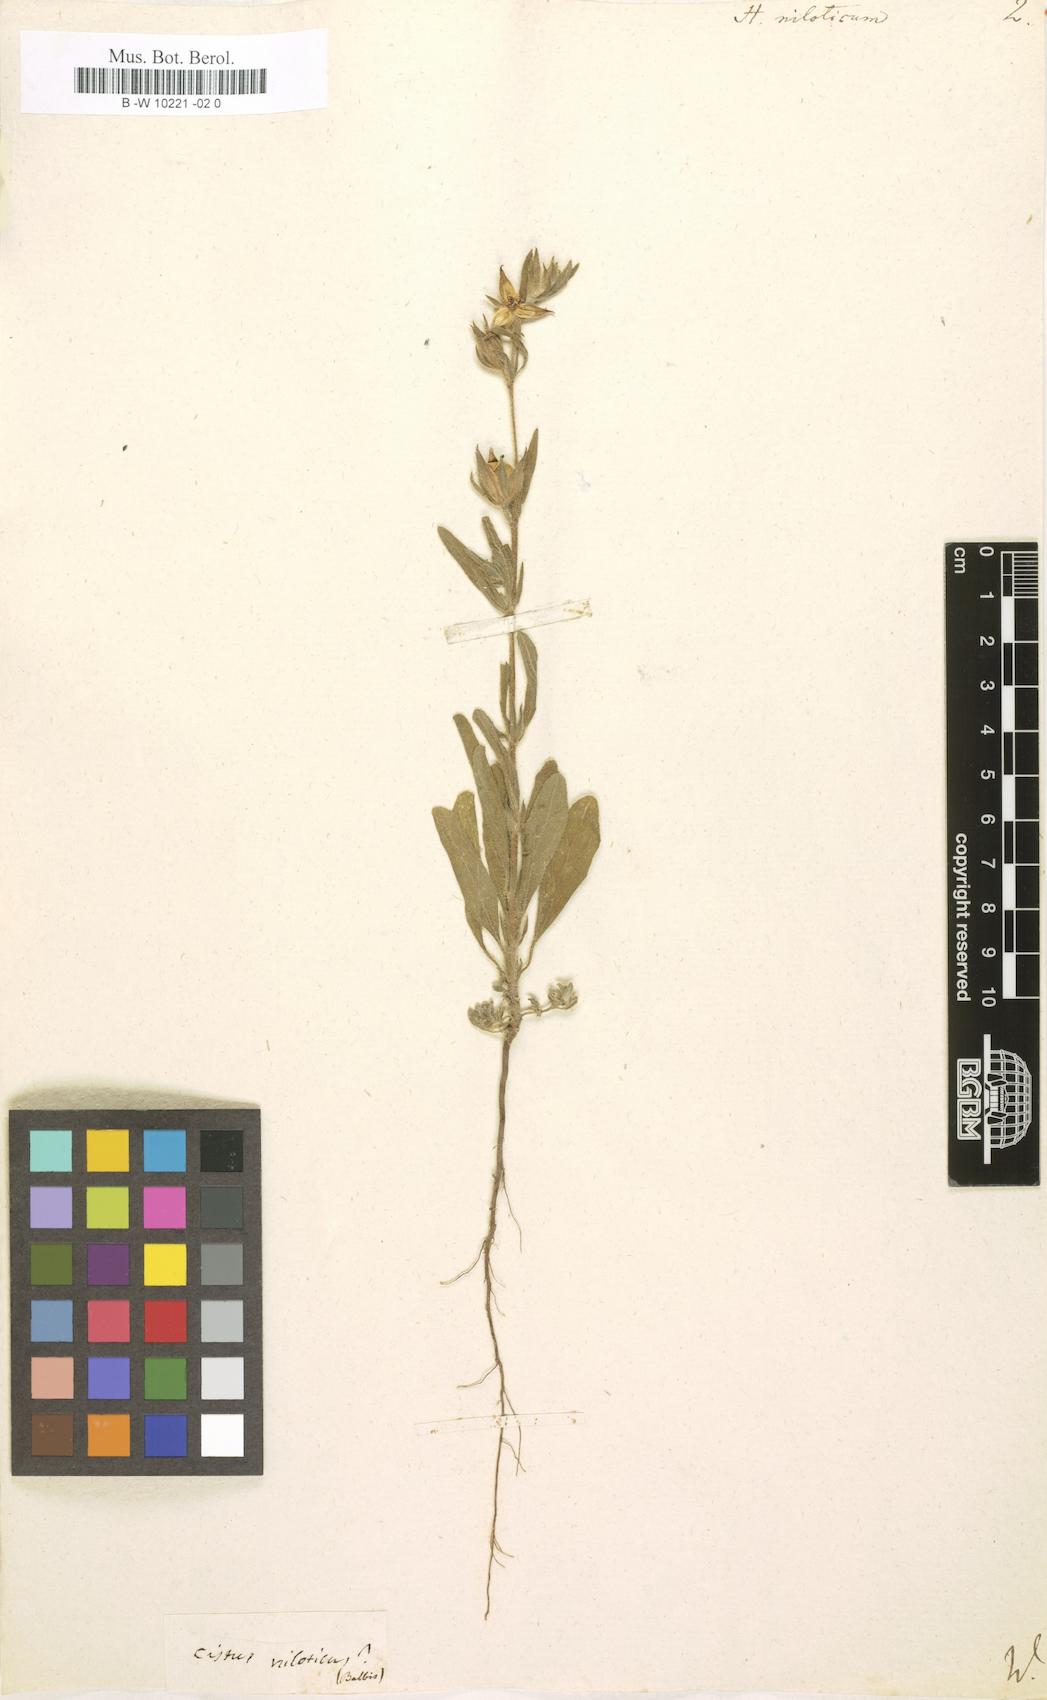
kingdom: Plantae
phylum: Tracheophyta
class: Magnoliopsida
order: Malvales
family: Cistaceae
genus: Helianthemum
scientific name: Helianthemum ledifolium
